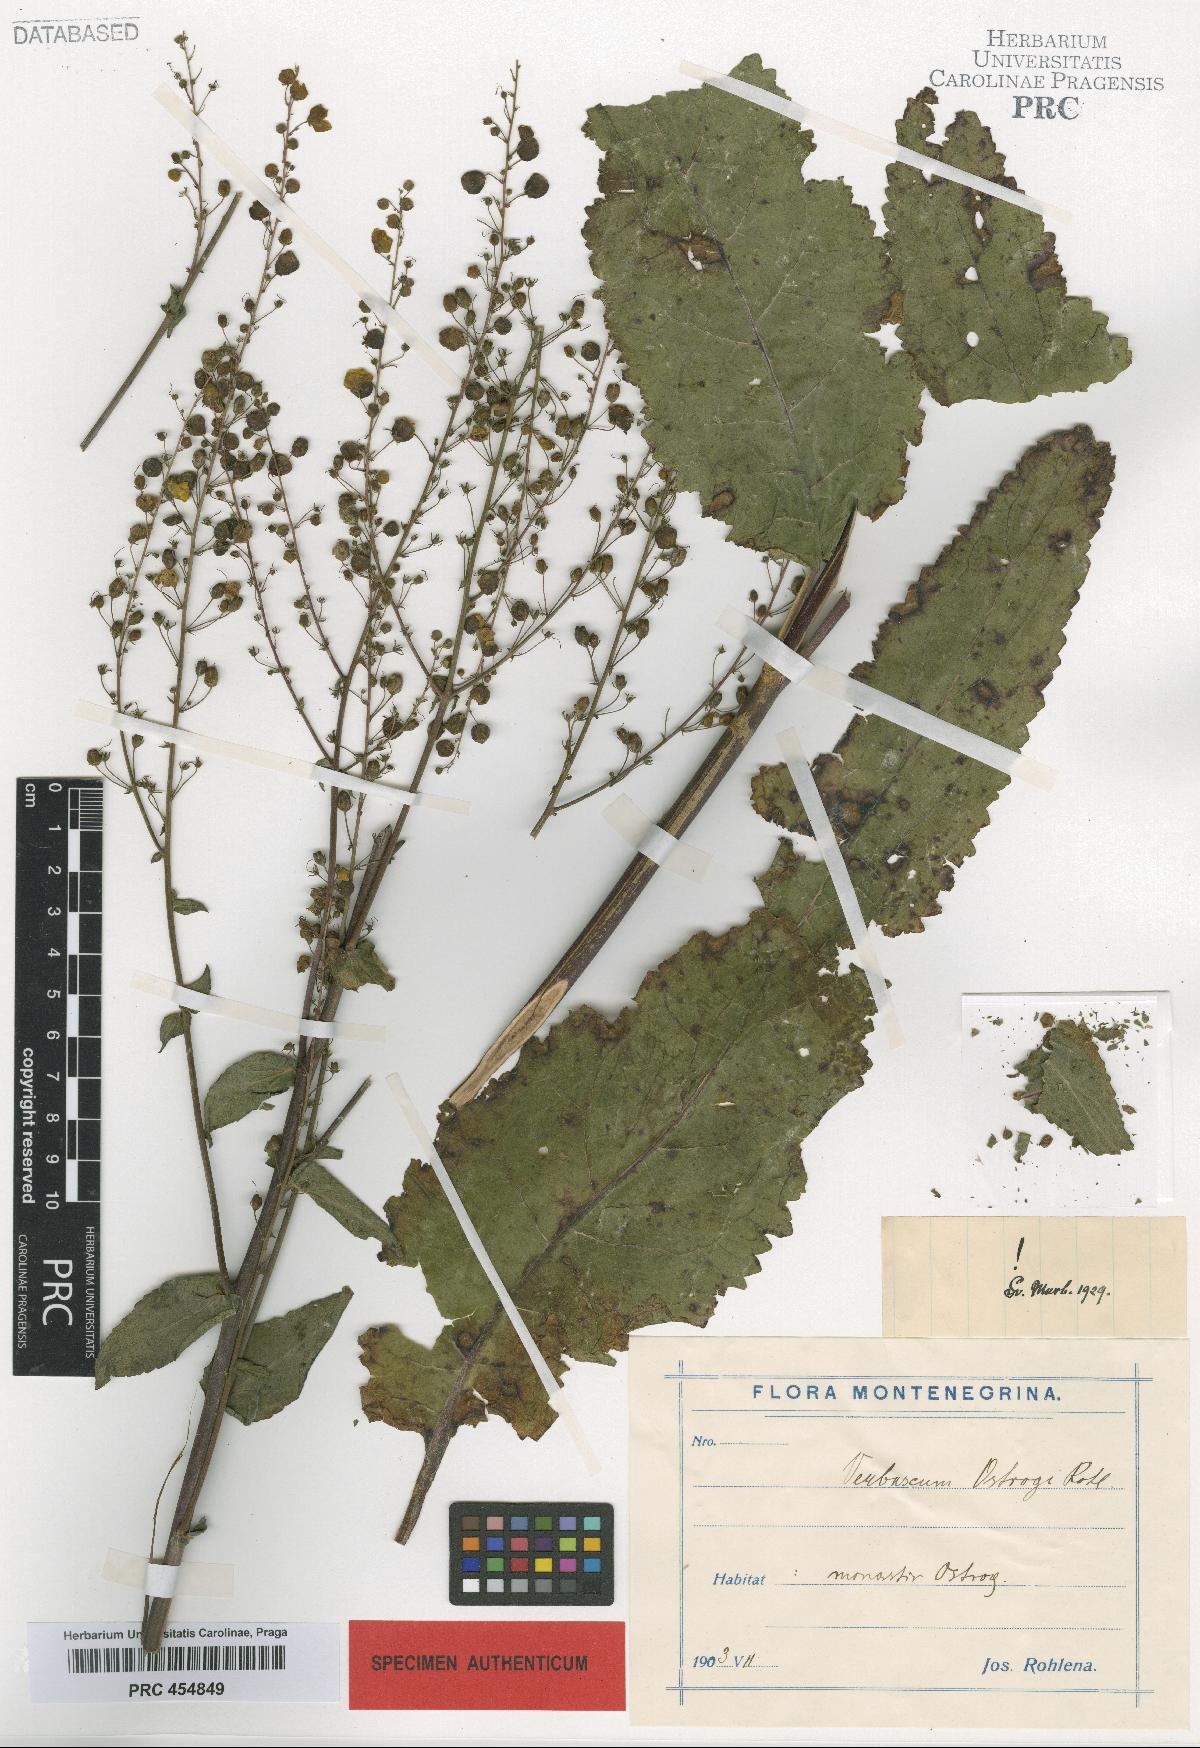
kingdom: Plantae
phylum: Tracheophyta
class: Magnoliopsida
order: Lamiales
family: Scrophulariaceae
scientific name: Scrophulariaceae
